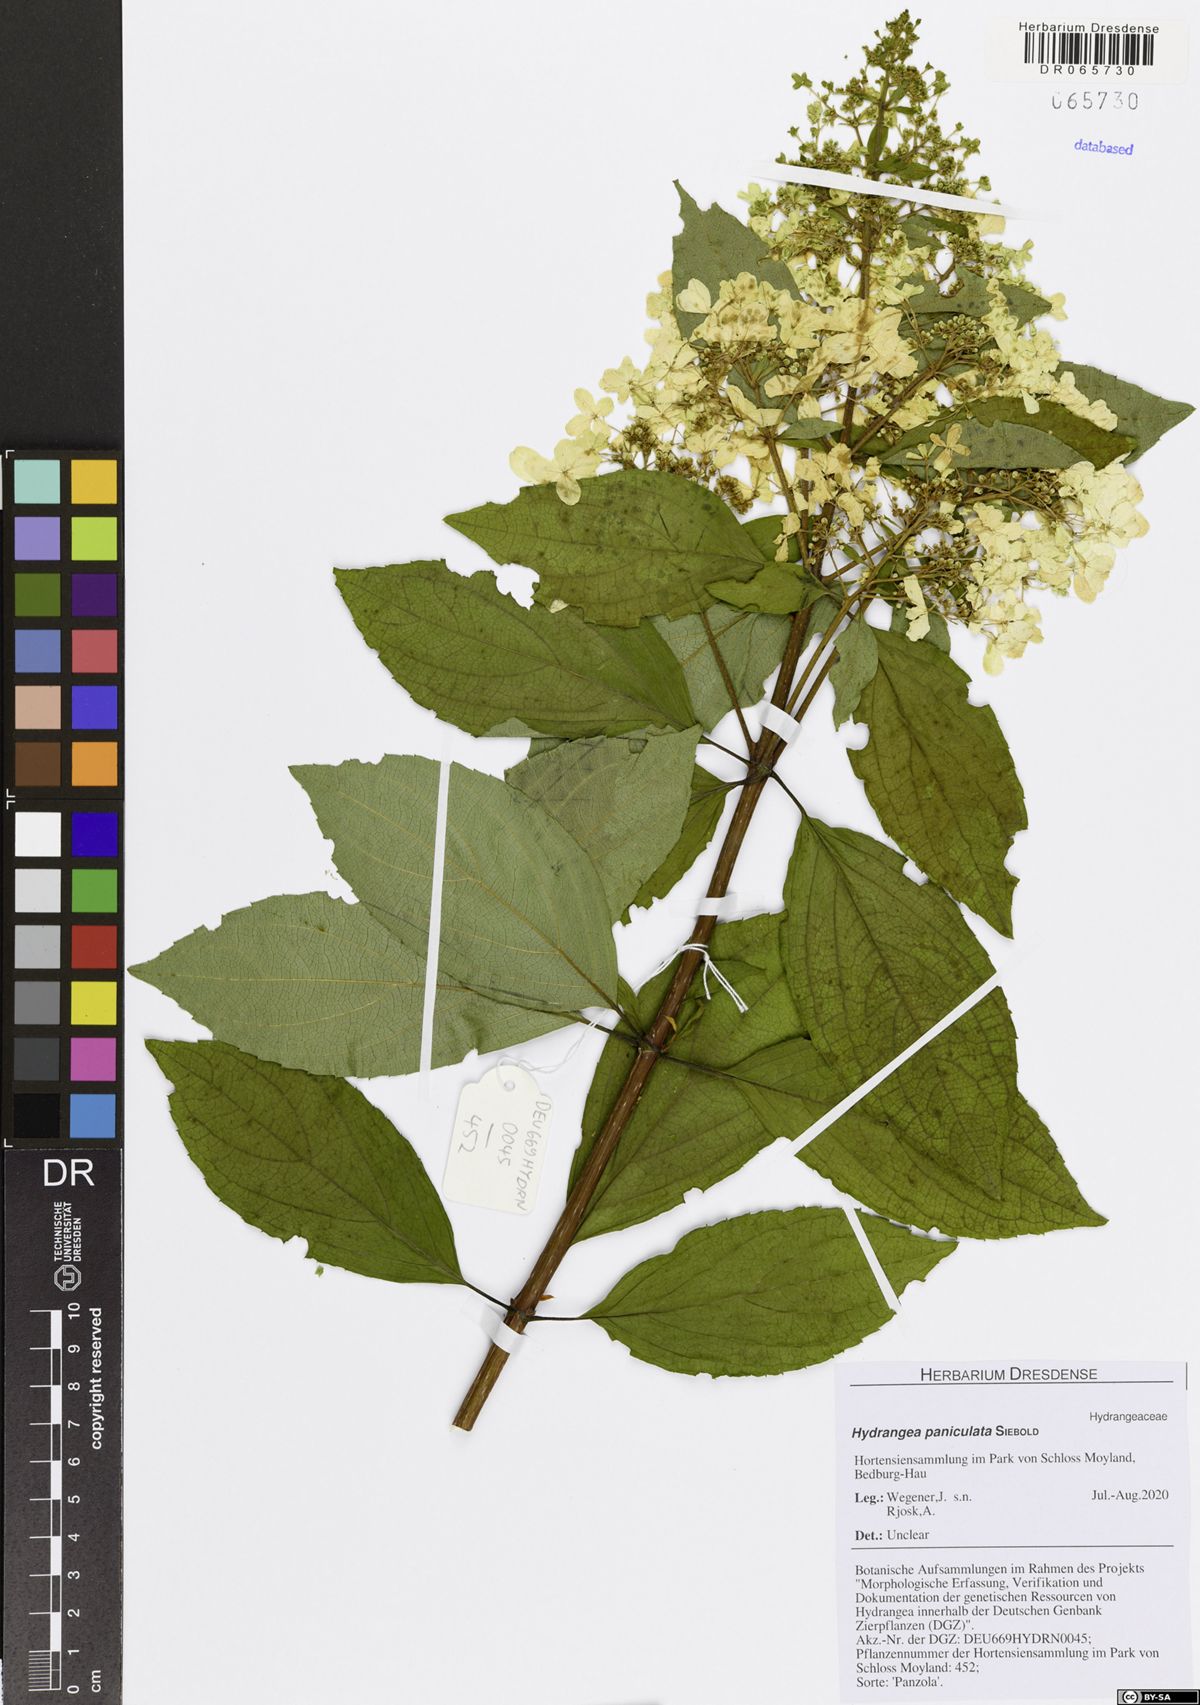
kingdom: Plantae
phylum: Tracheophyta
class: Magnoliopsida
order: Cornales
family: Hydrangeaceae
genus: Hydrangea
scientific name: Hydrangea paniculata
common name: Panicled hydrangea
